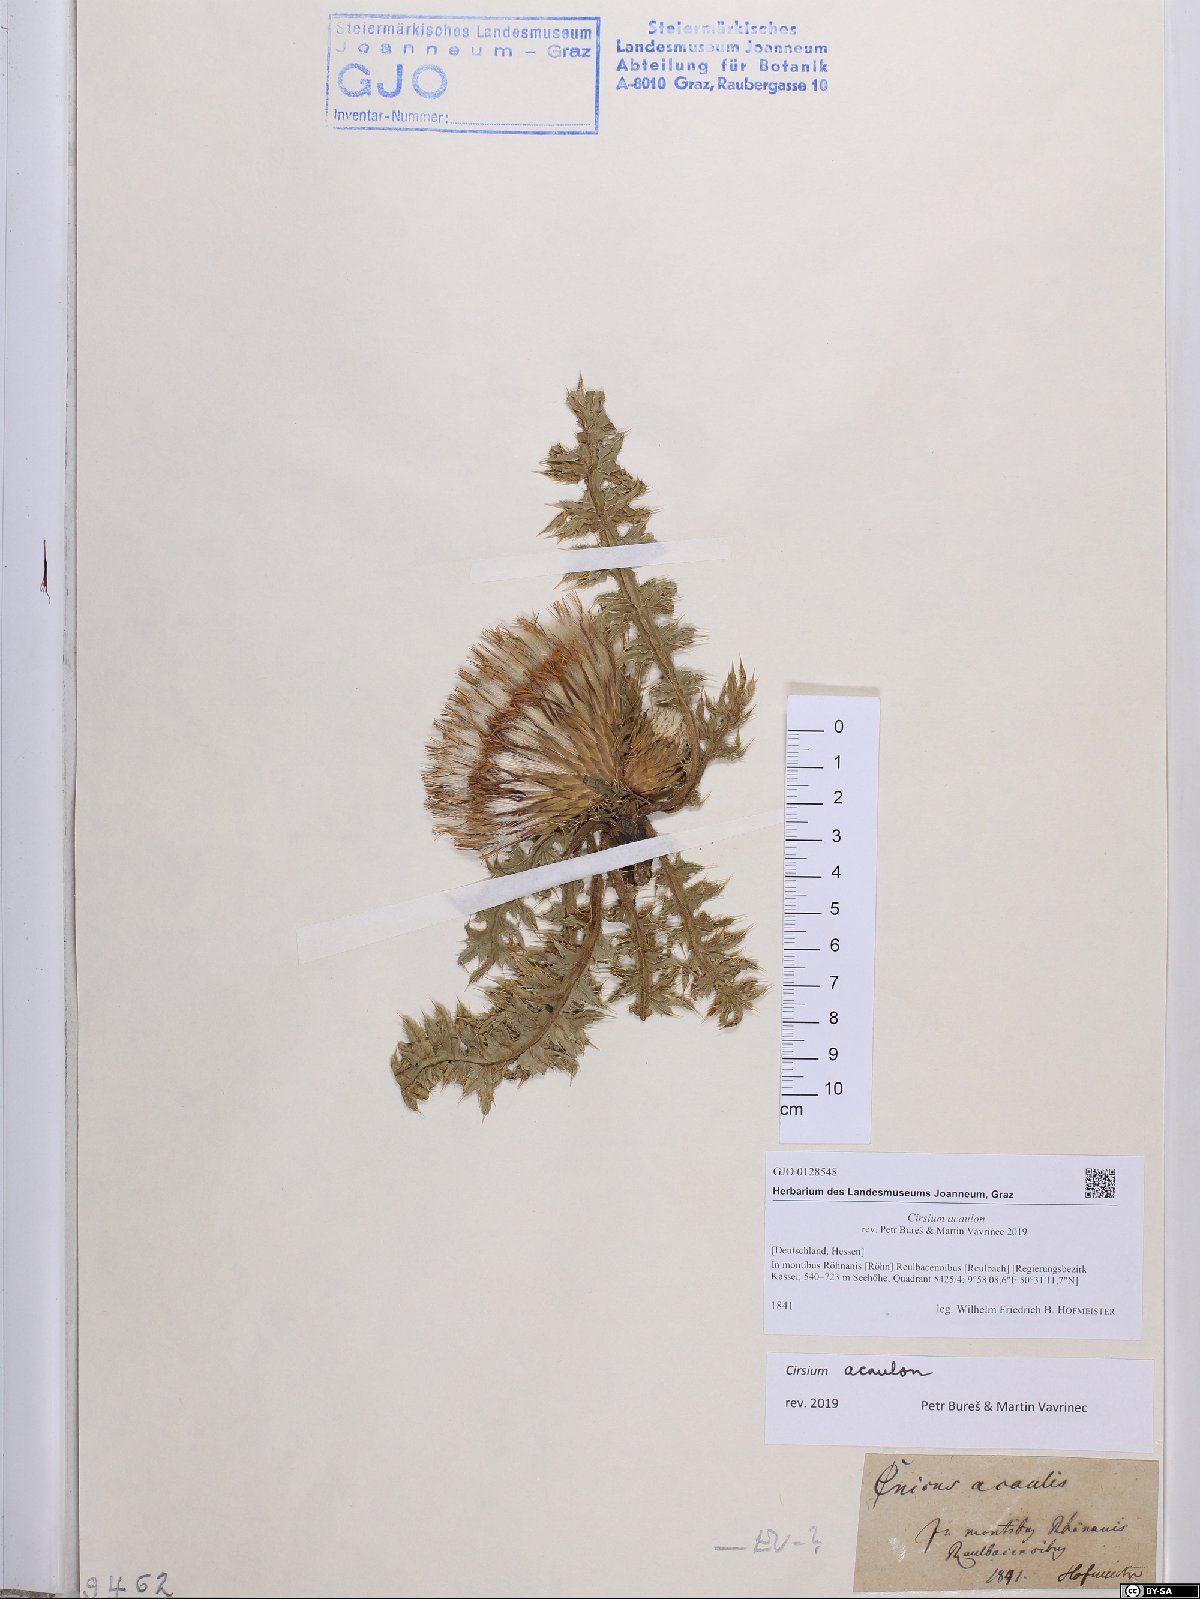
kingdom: Plantae
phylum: Tracheophyta
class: Magnoliopsida
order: Asterales
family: Asteraceae
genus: Cirsium
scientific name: Cirsium acaulon
